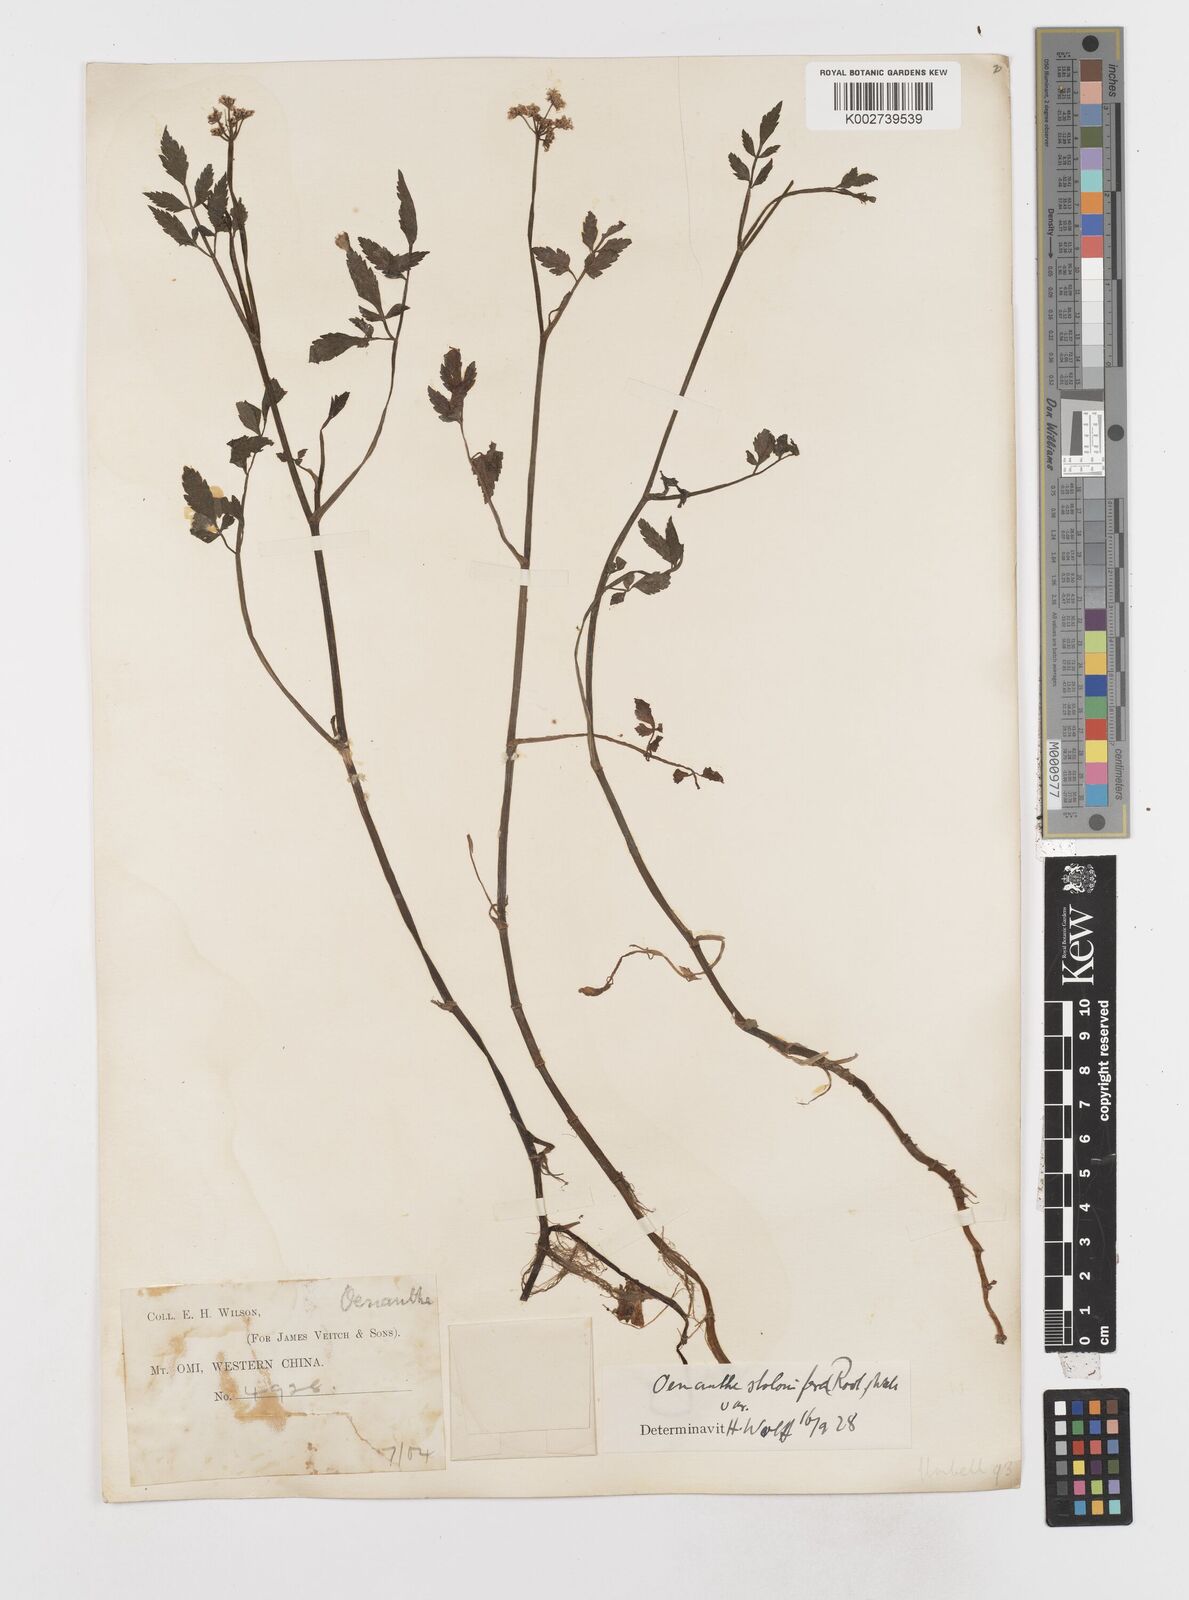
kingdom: Plantae
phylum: Tracheophyta
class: Magnoliopsida
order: Apiales
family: Apiaceae
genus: Oenanthe
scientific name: Oenanthe javanica
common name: Java water-dropwort
